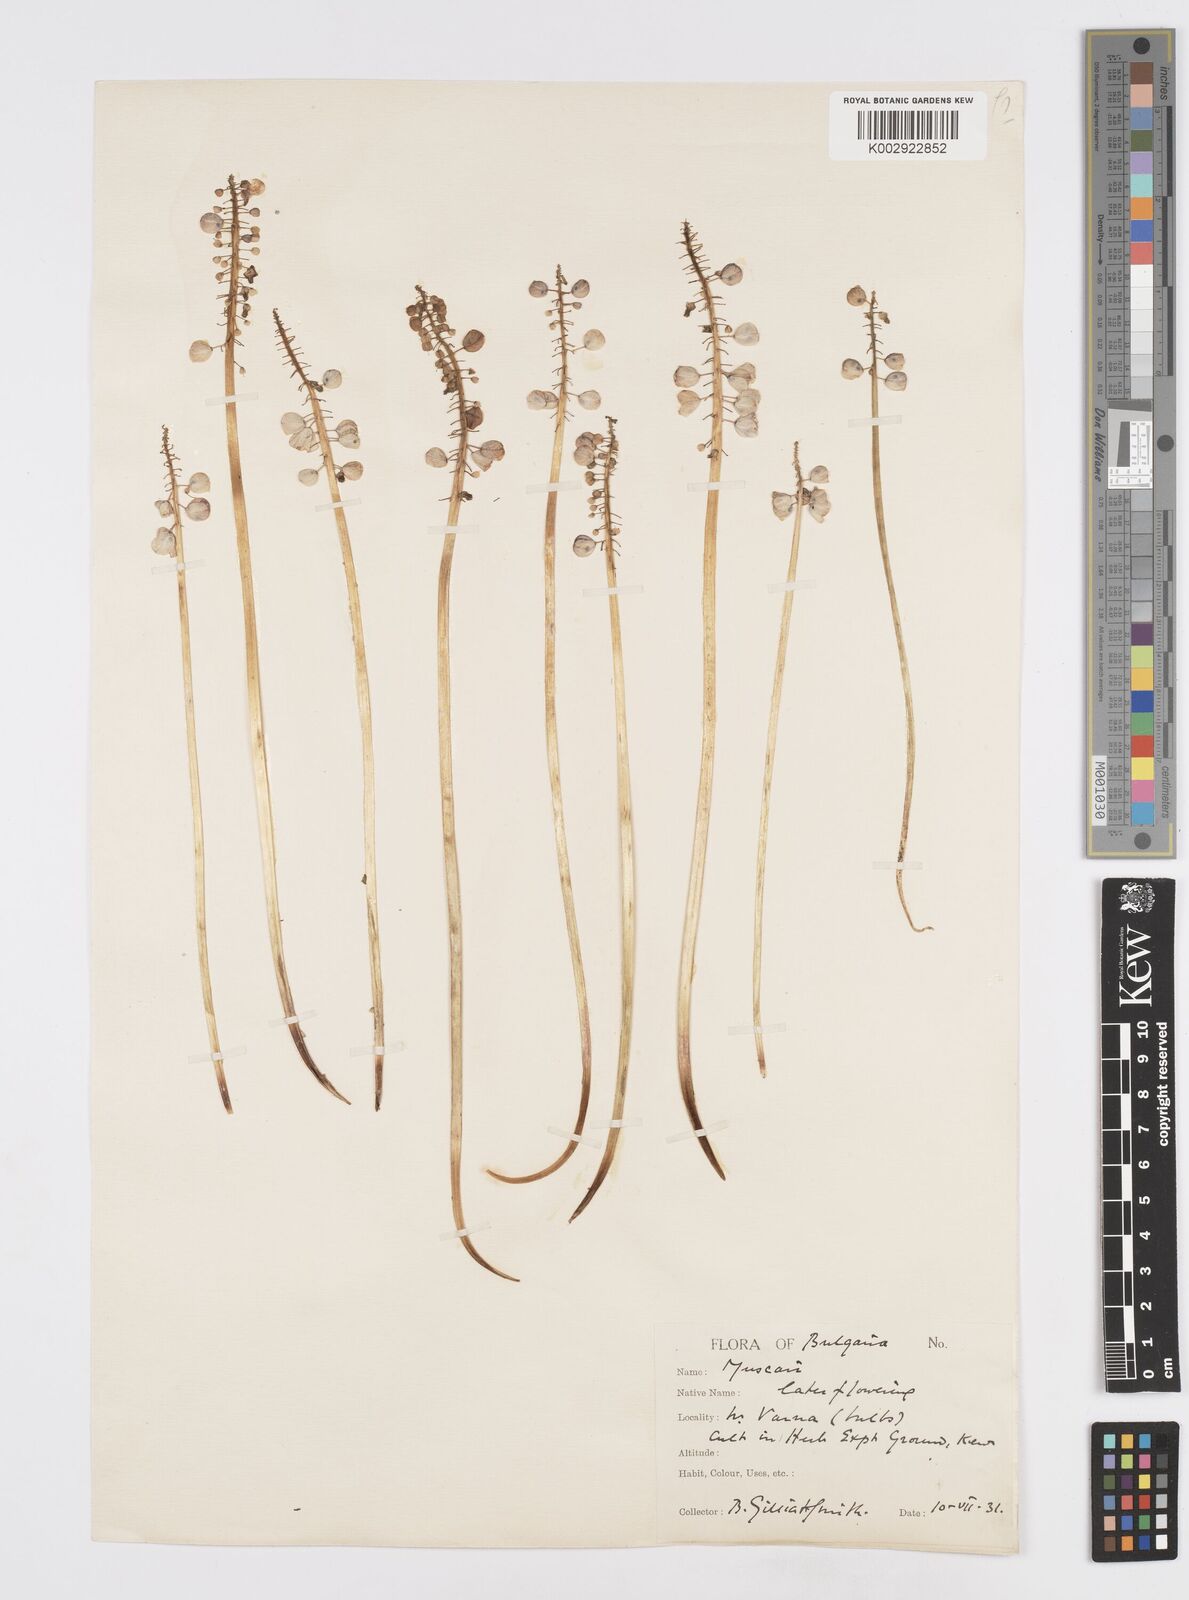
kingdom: Plantae
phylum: Tracheophyta
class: Liliopsida
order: Asparagales
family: Asparagaceae
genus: Muscari
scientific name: Muscari armeniacum
